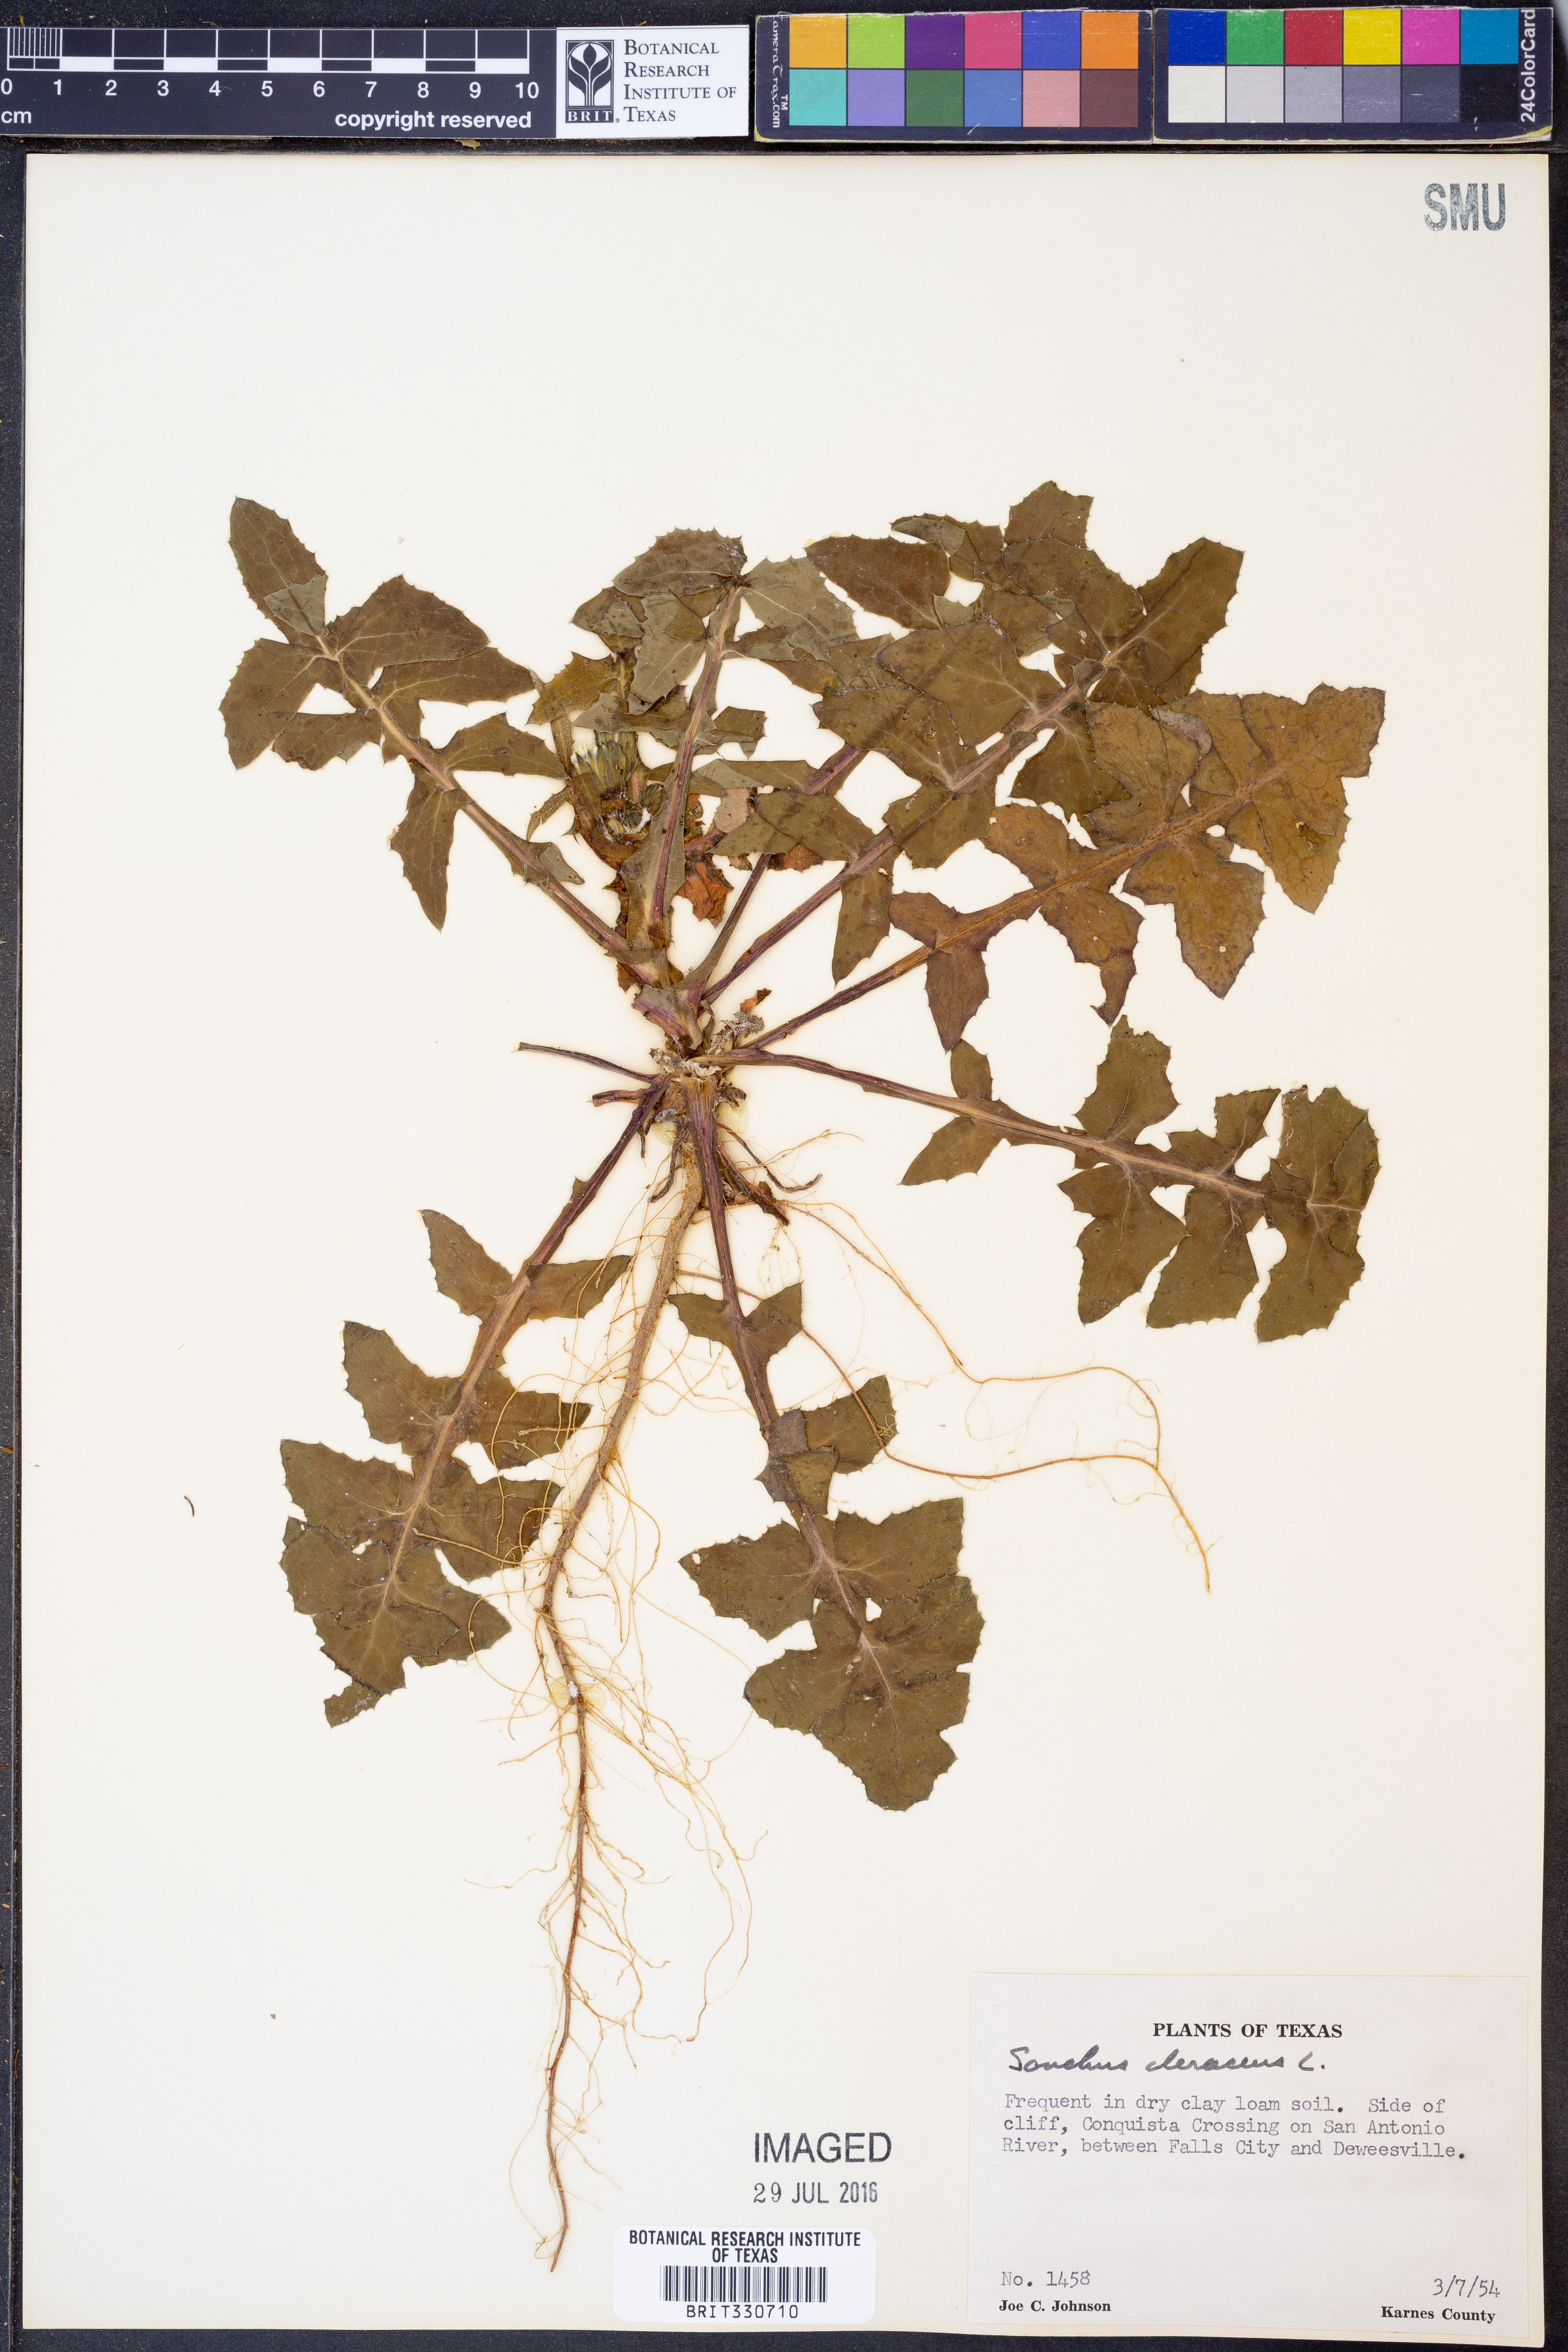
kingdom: Plantae
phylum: Tracheophyta
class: Magnoliopsida
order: Asterales
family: Asteraceae
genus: Sonchus
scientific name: Sonchus oleraceus
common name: Common sowthistle
